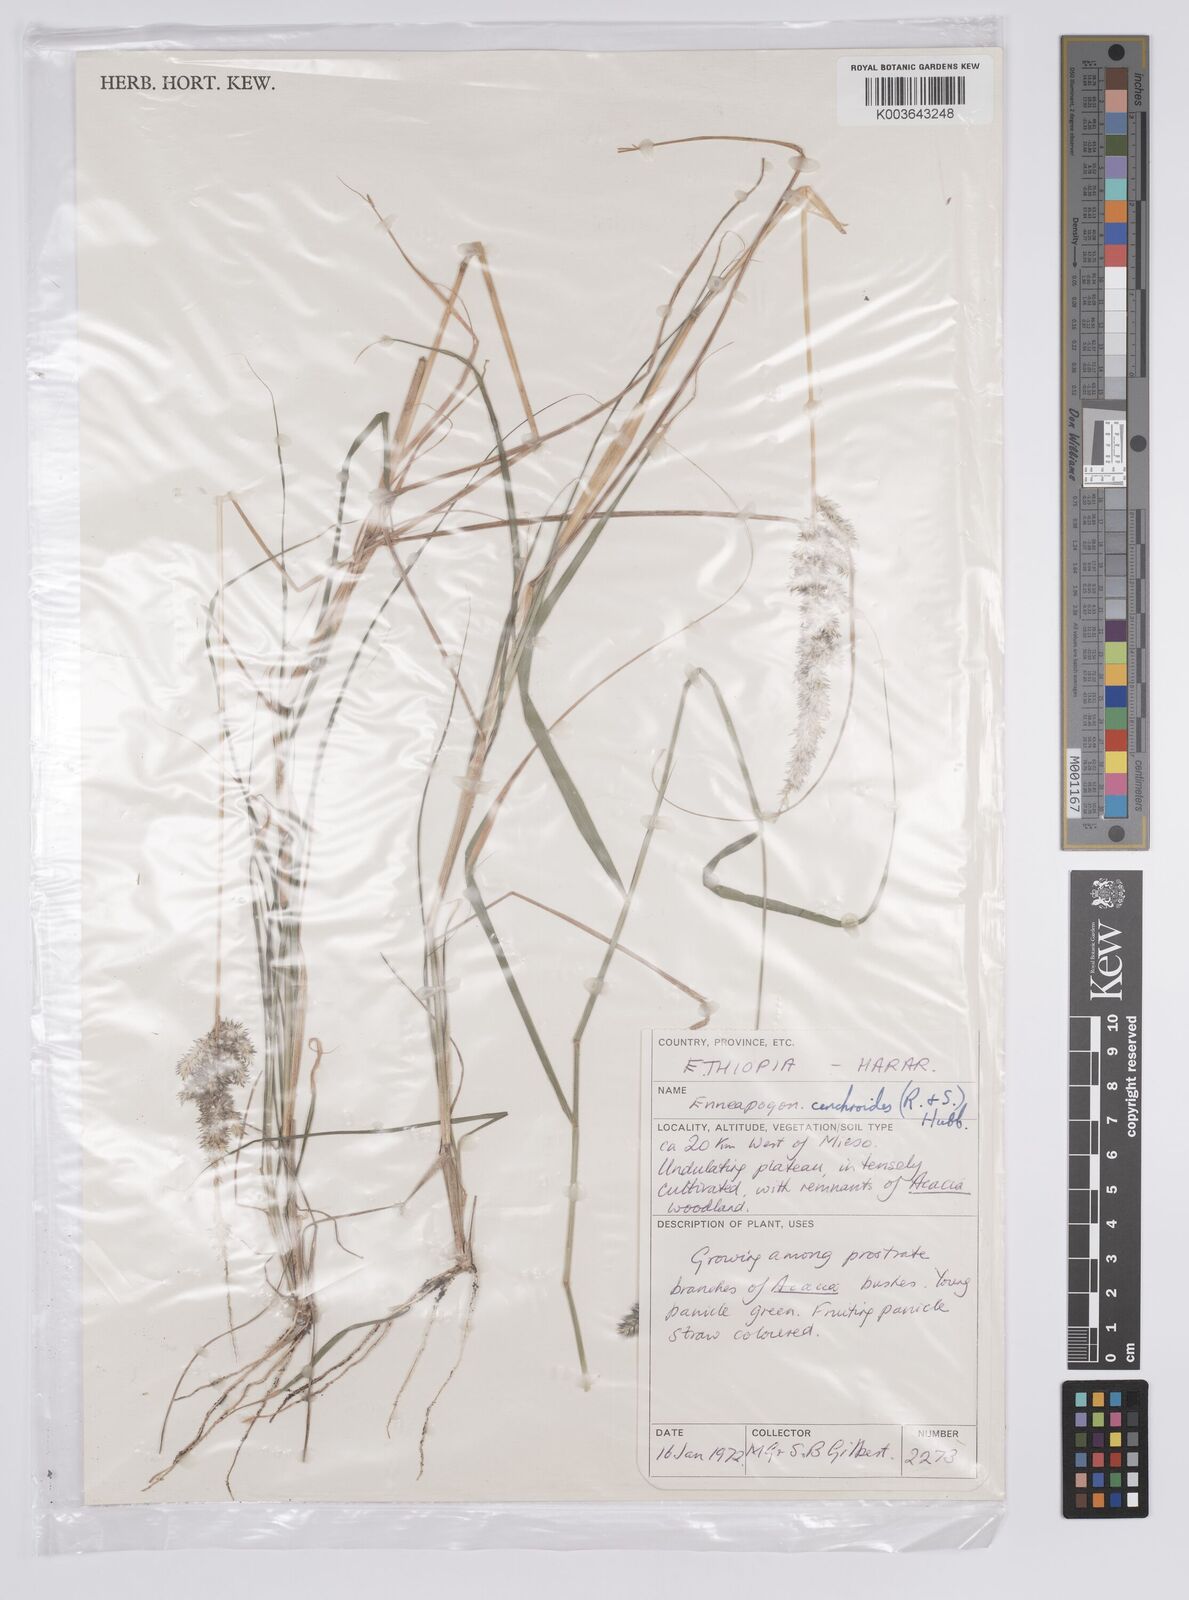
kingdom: Plantae
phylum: Tracheophyta
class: Liliopsida
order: Poales
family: Poaceae
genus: Enneapogon
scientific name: Enneapogon cenchroides
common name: Soft feather pappusgrass
